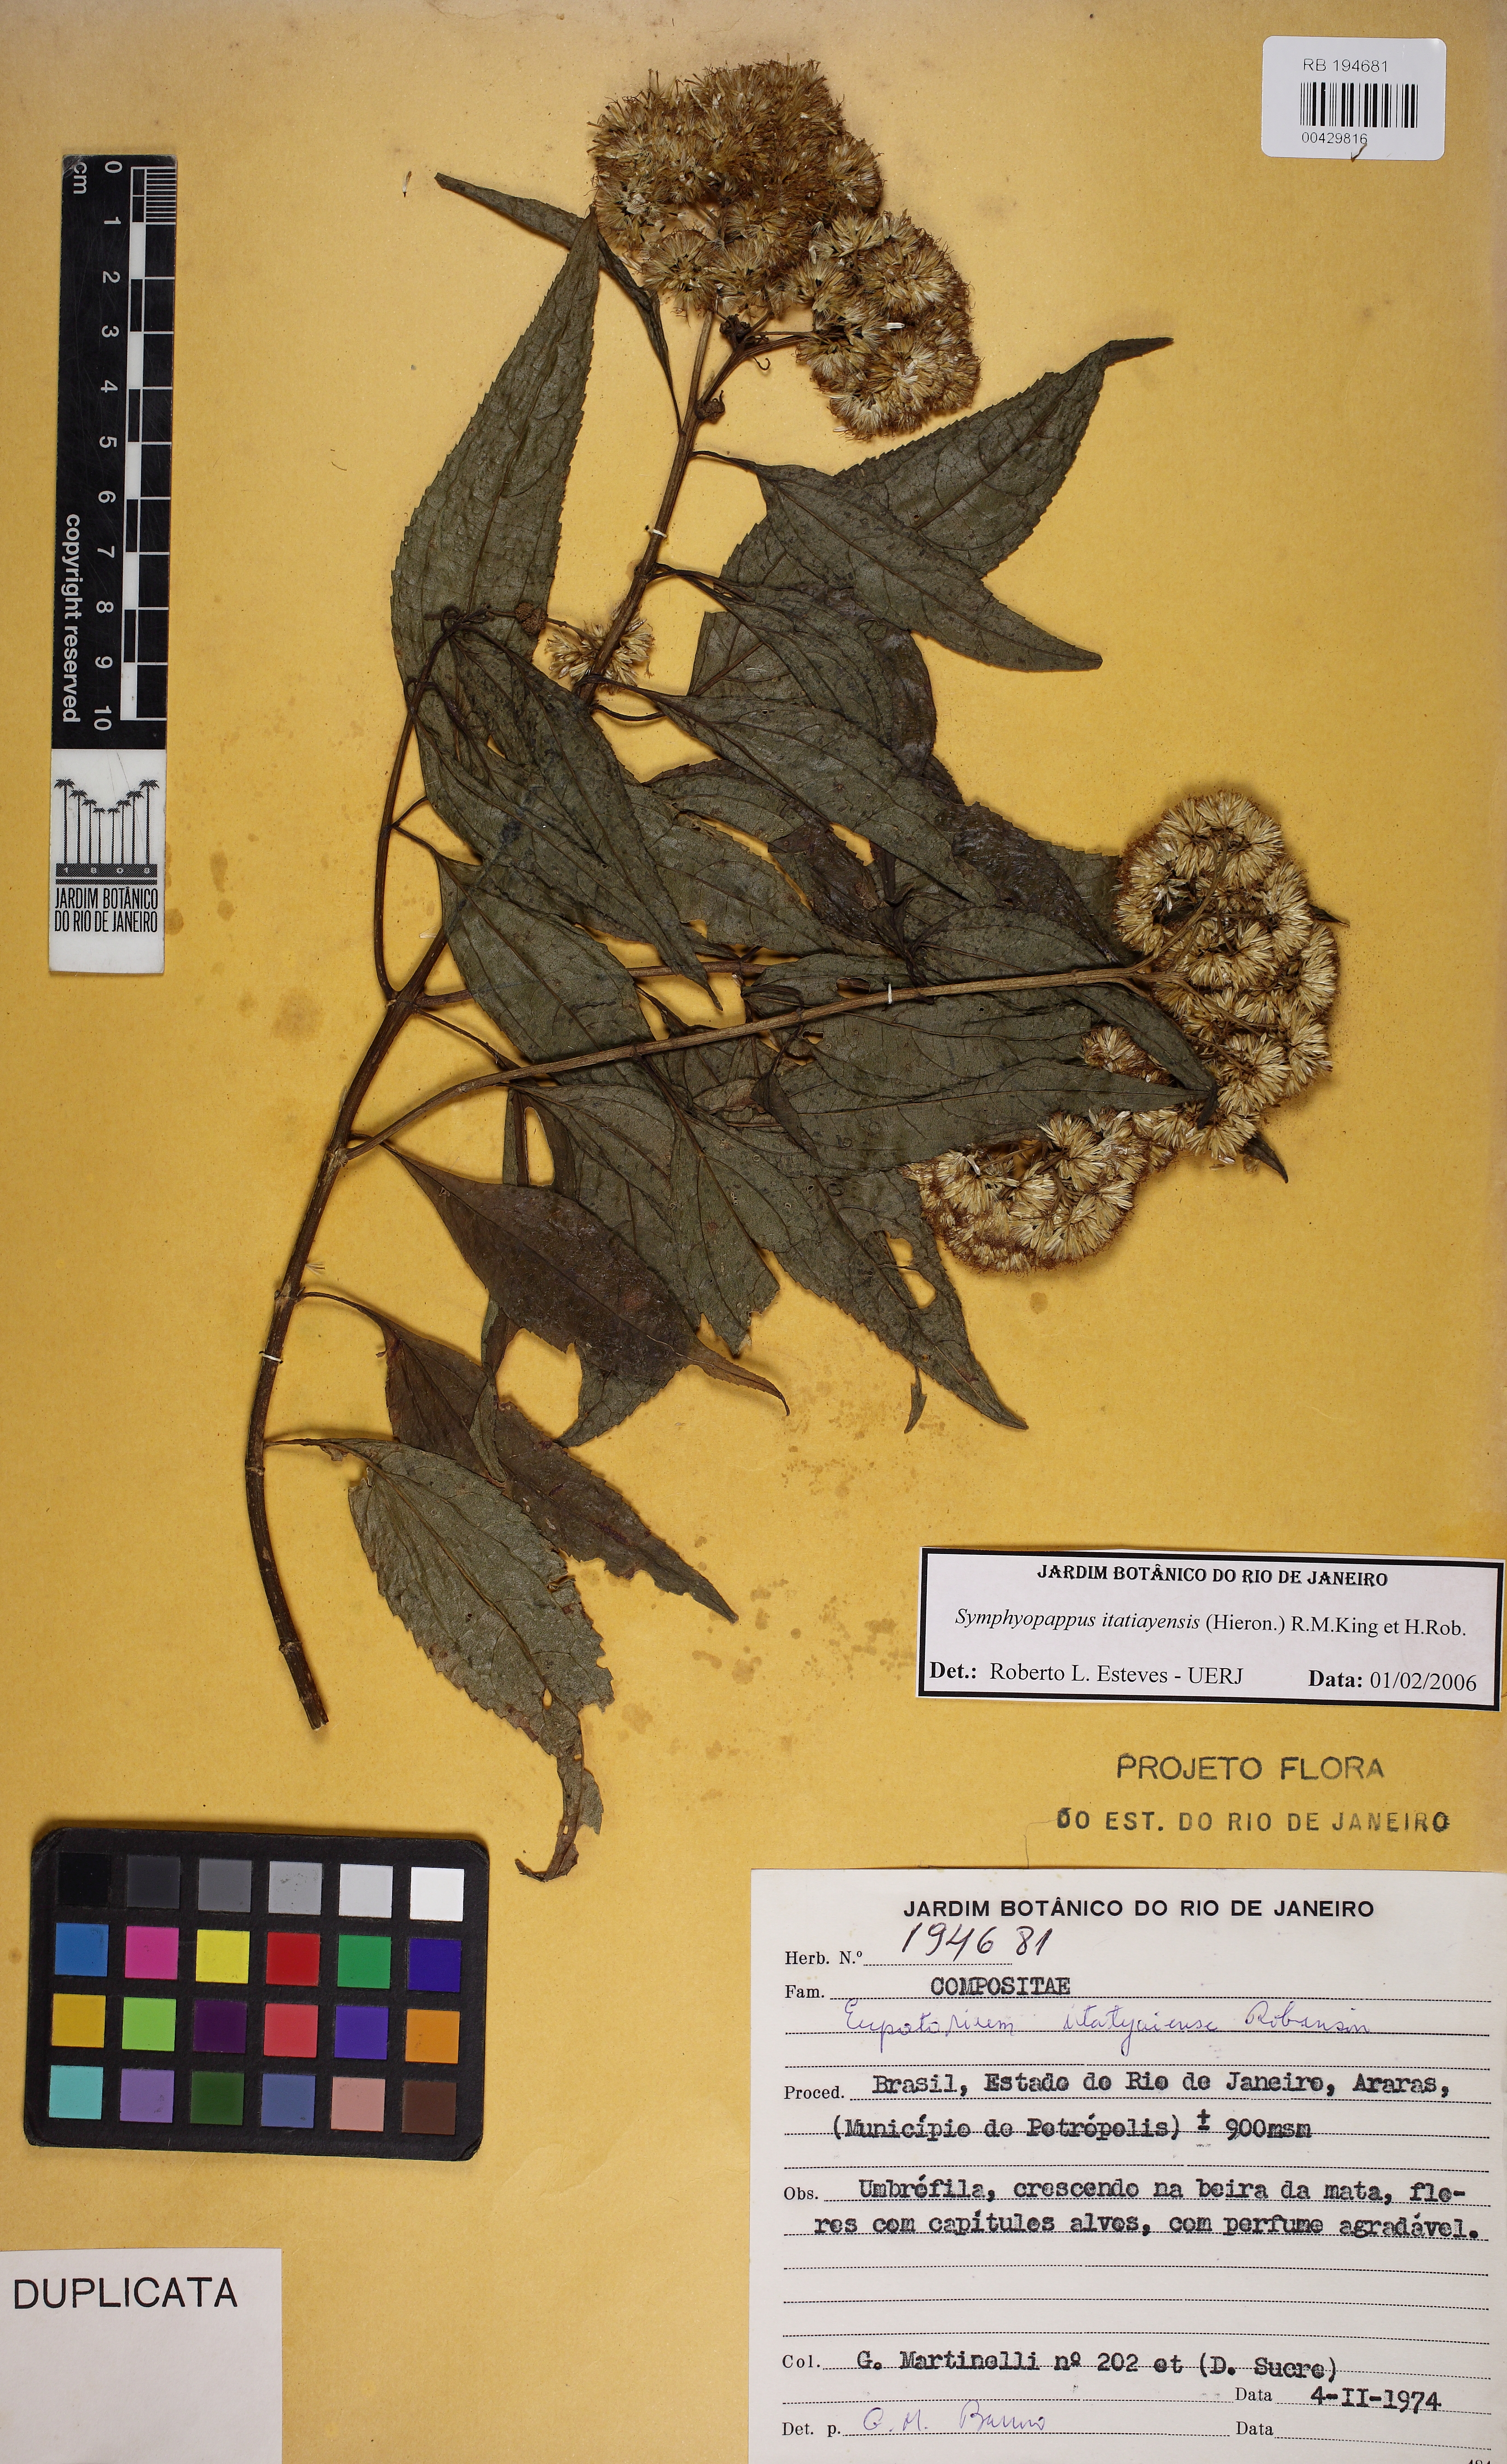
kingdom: Plantae
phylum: Tracheophyta
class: Magnoliopsida
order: Asterales
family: Asteraceae
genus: Symphyopappus
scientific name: Symphyopappus itatiayensis
